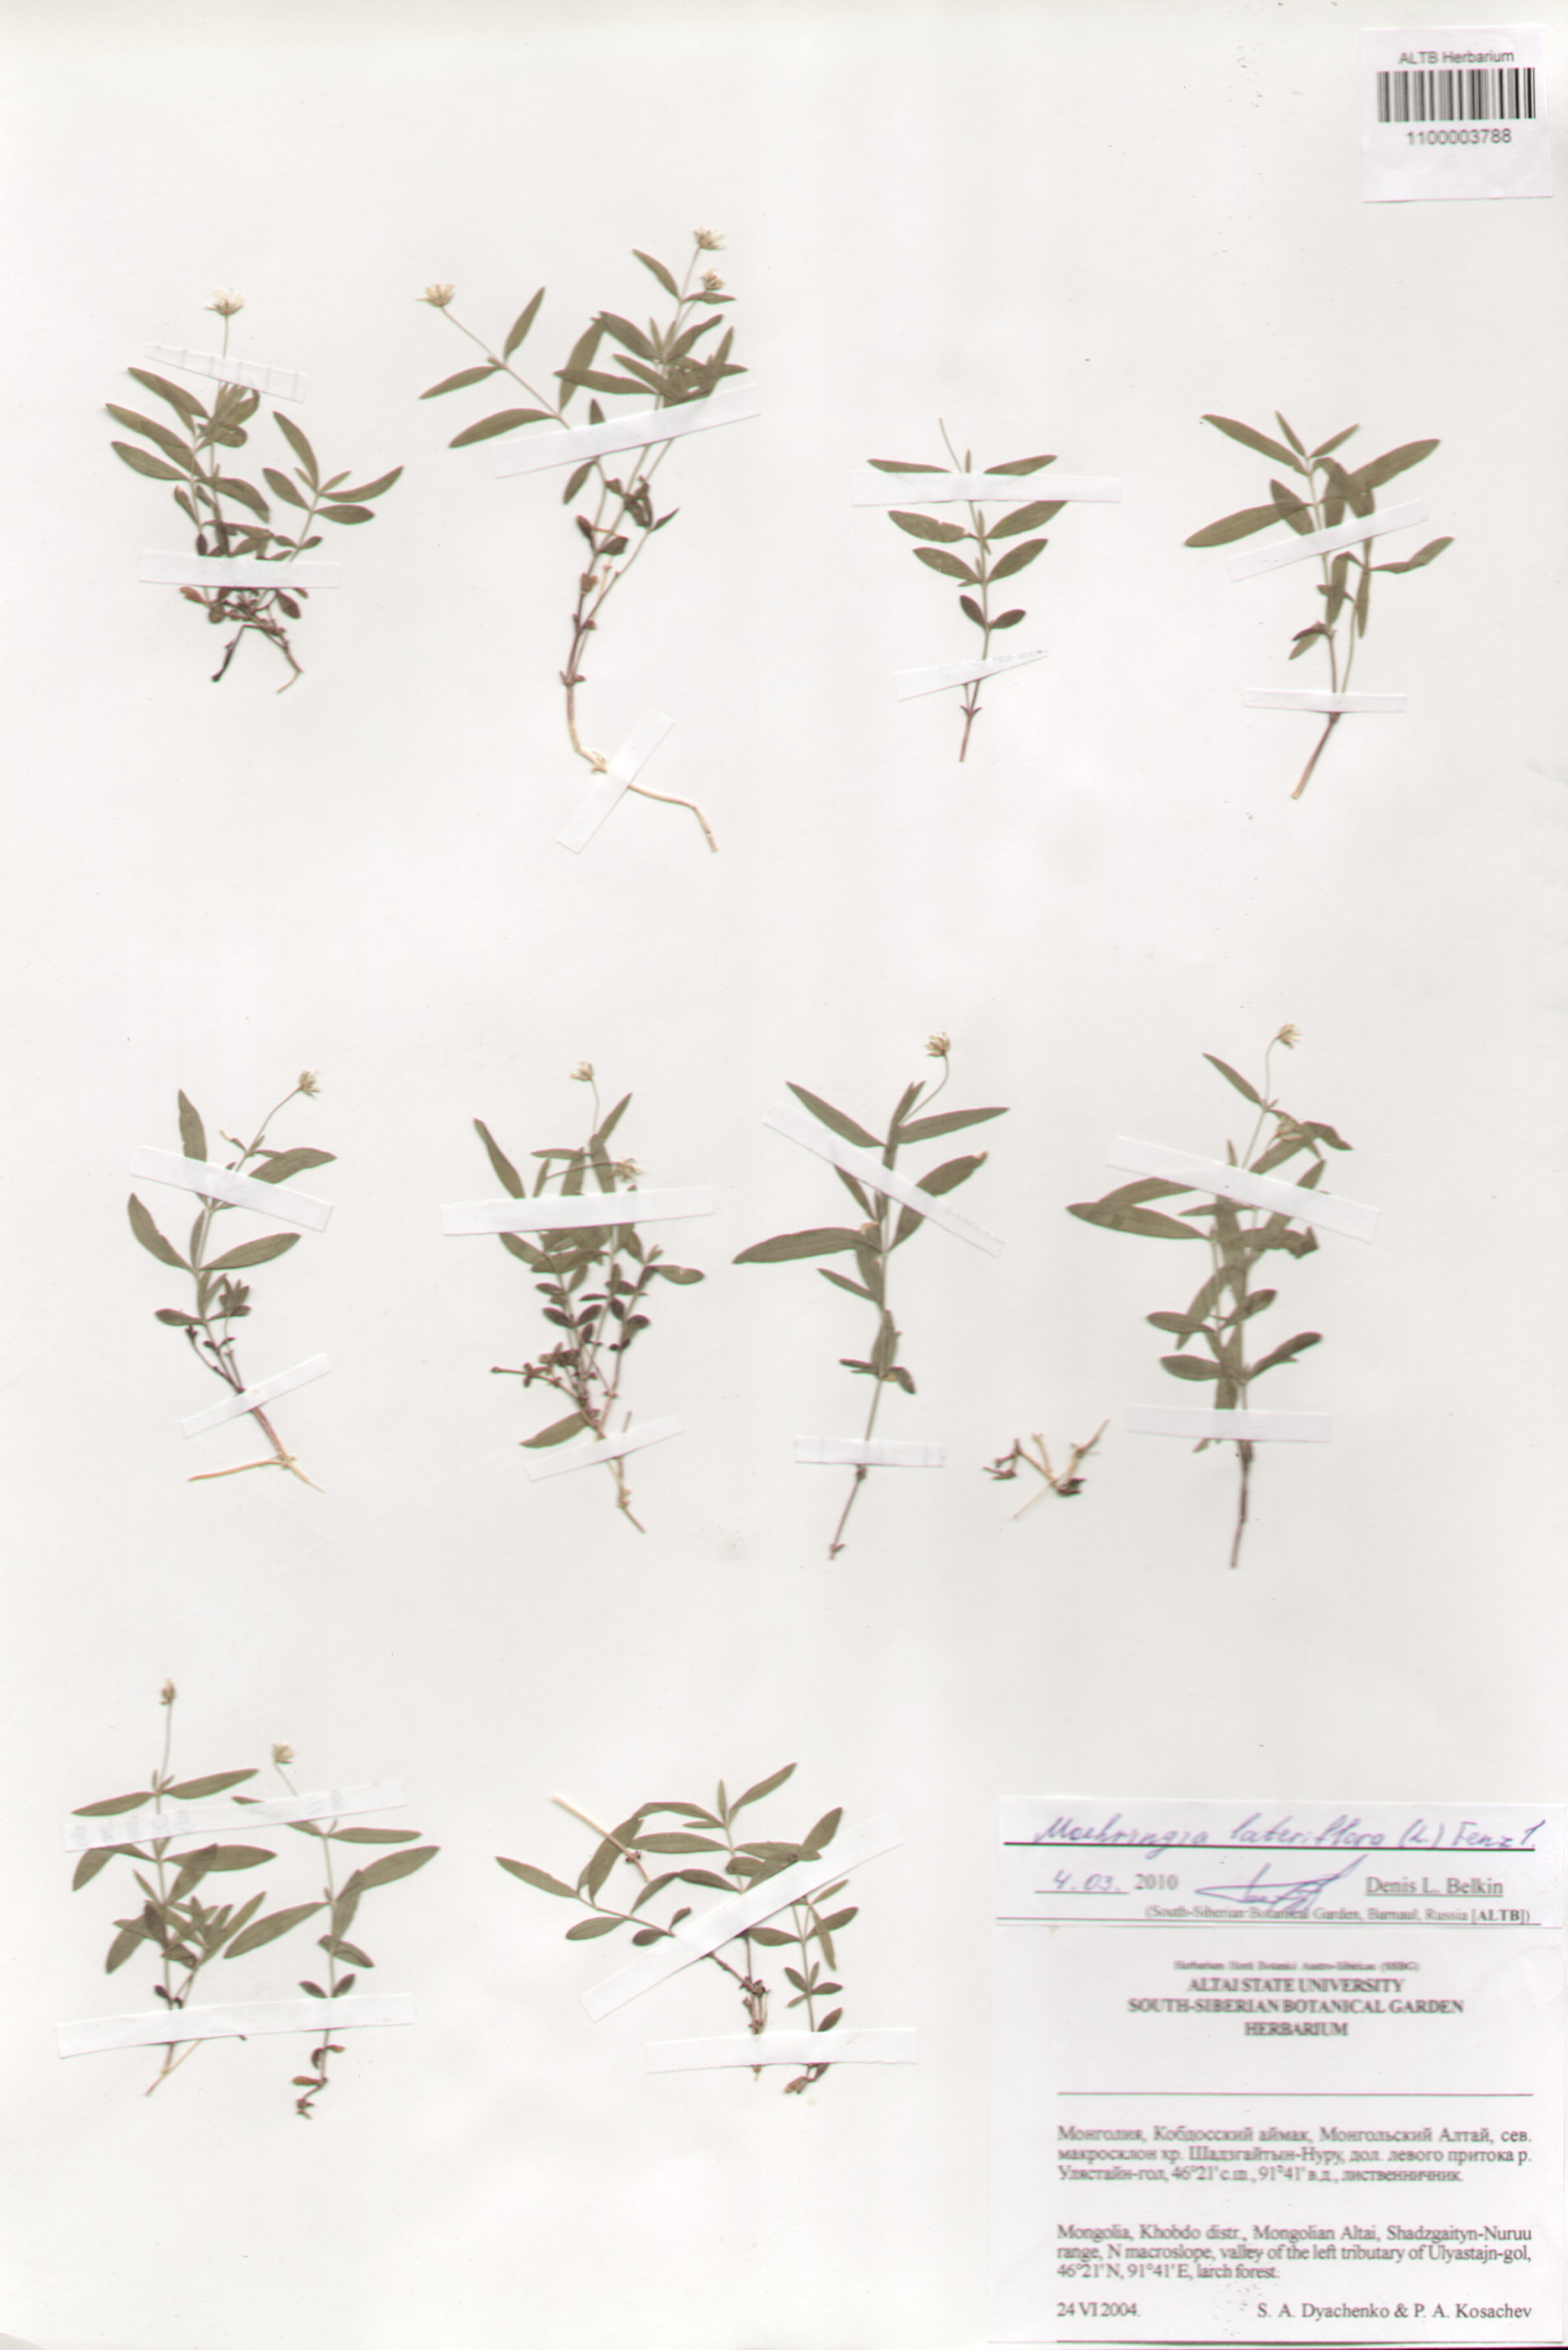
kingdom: Plantae
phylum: Tracheophyta
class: Magnoliopsida
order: Caryophyllales
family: Caryophyllaceae
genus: Moehringia
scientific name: Moehringia lateriflora
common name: Blunt-leaved sandwort
